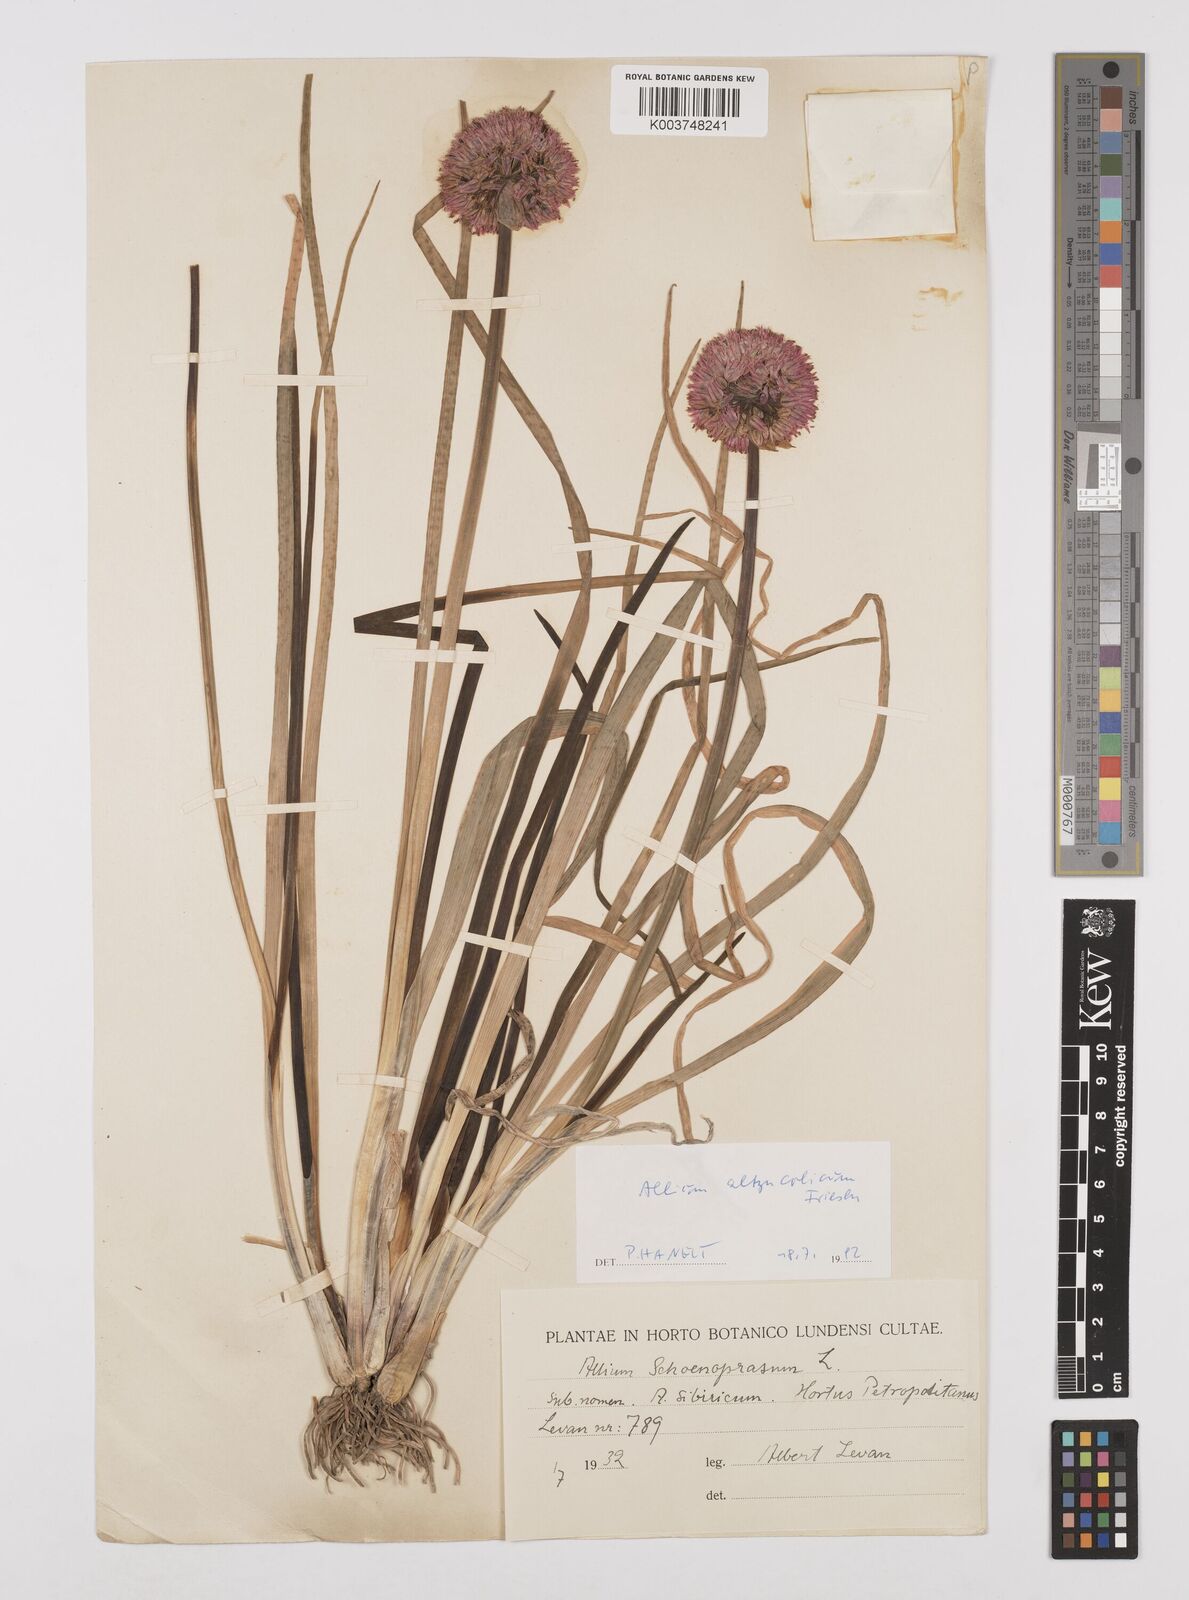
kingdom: Plantae
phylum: Tracheophyta
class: Liliopsida
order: Asparagales
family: Amaryllidaceae
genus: Allium
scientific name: Allium altyncolicum
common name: Altynkol chive
